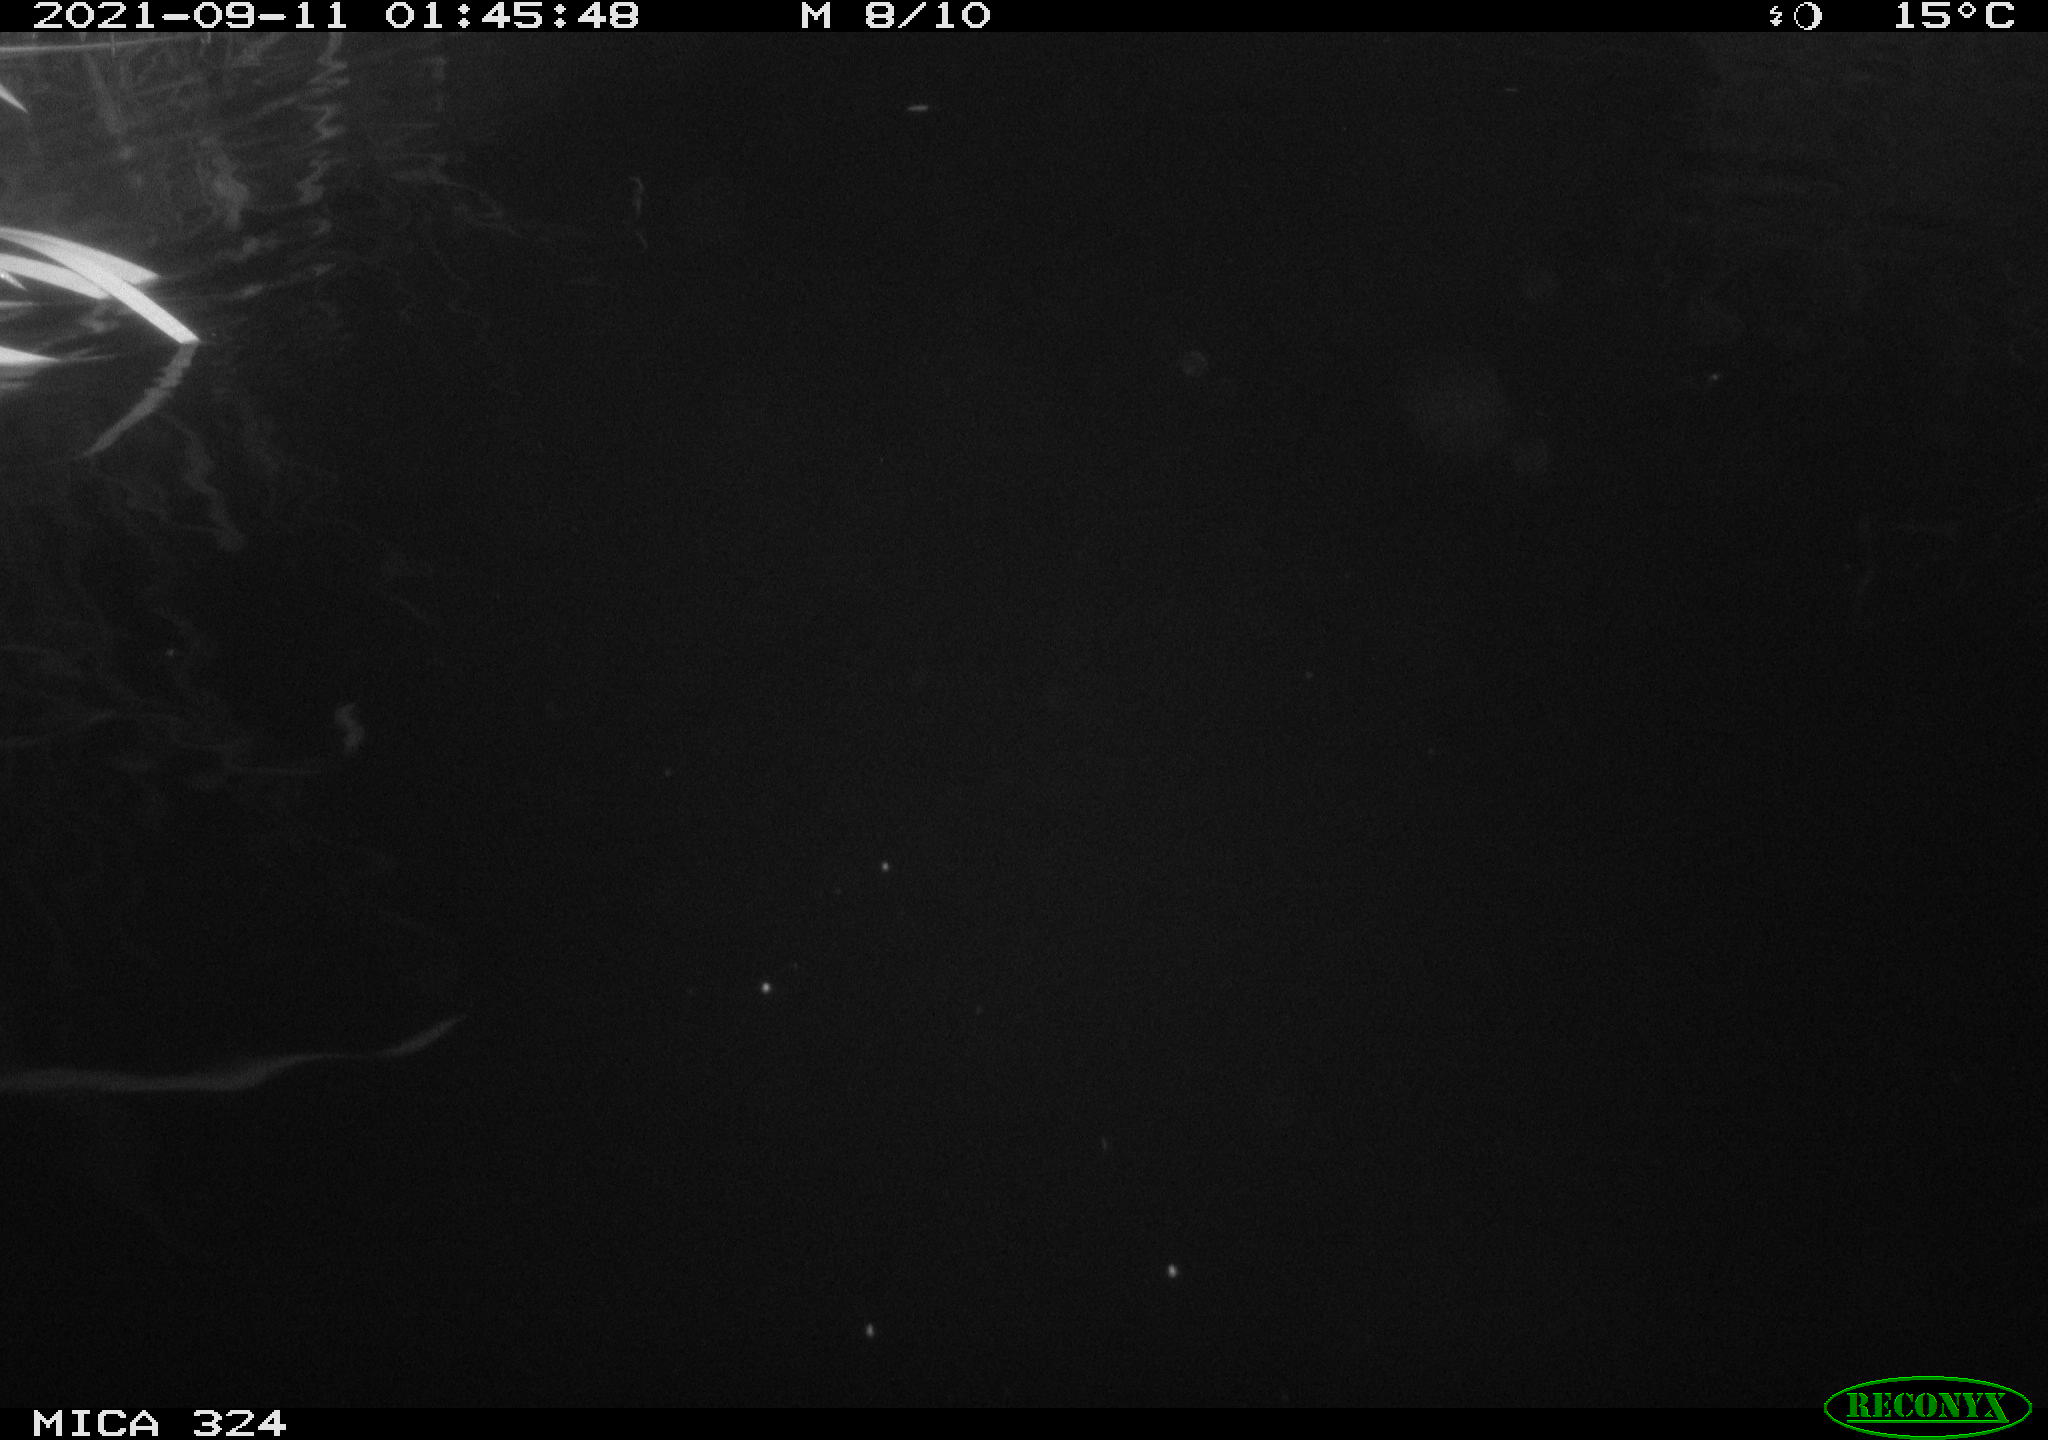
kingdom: Animalia
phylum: Chordata
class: Mammalia
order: Rodentia
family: Cricetidae
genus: Ondatra
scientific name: Ondatra zibethicus
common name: Muskrat
